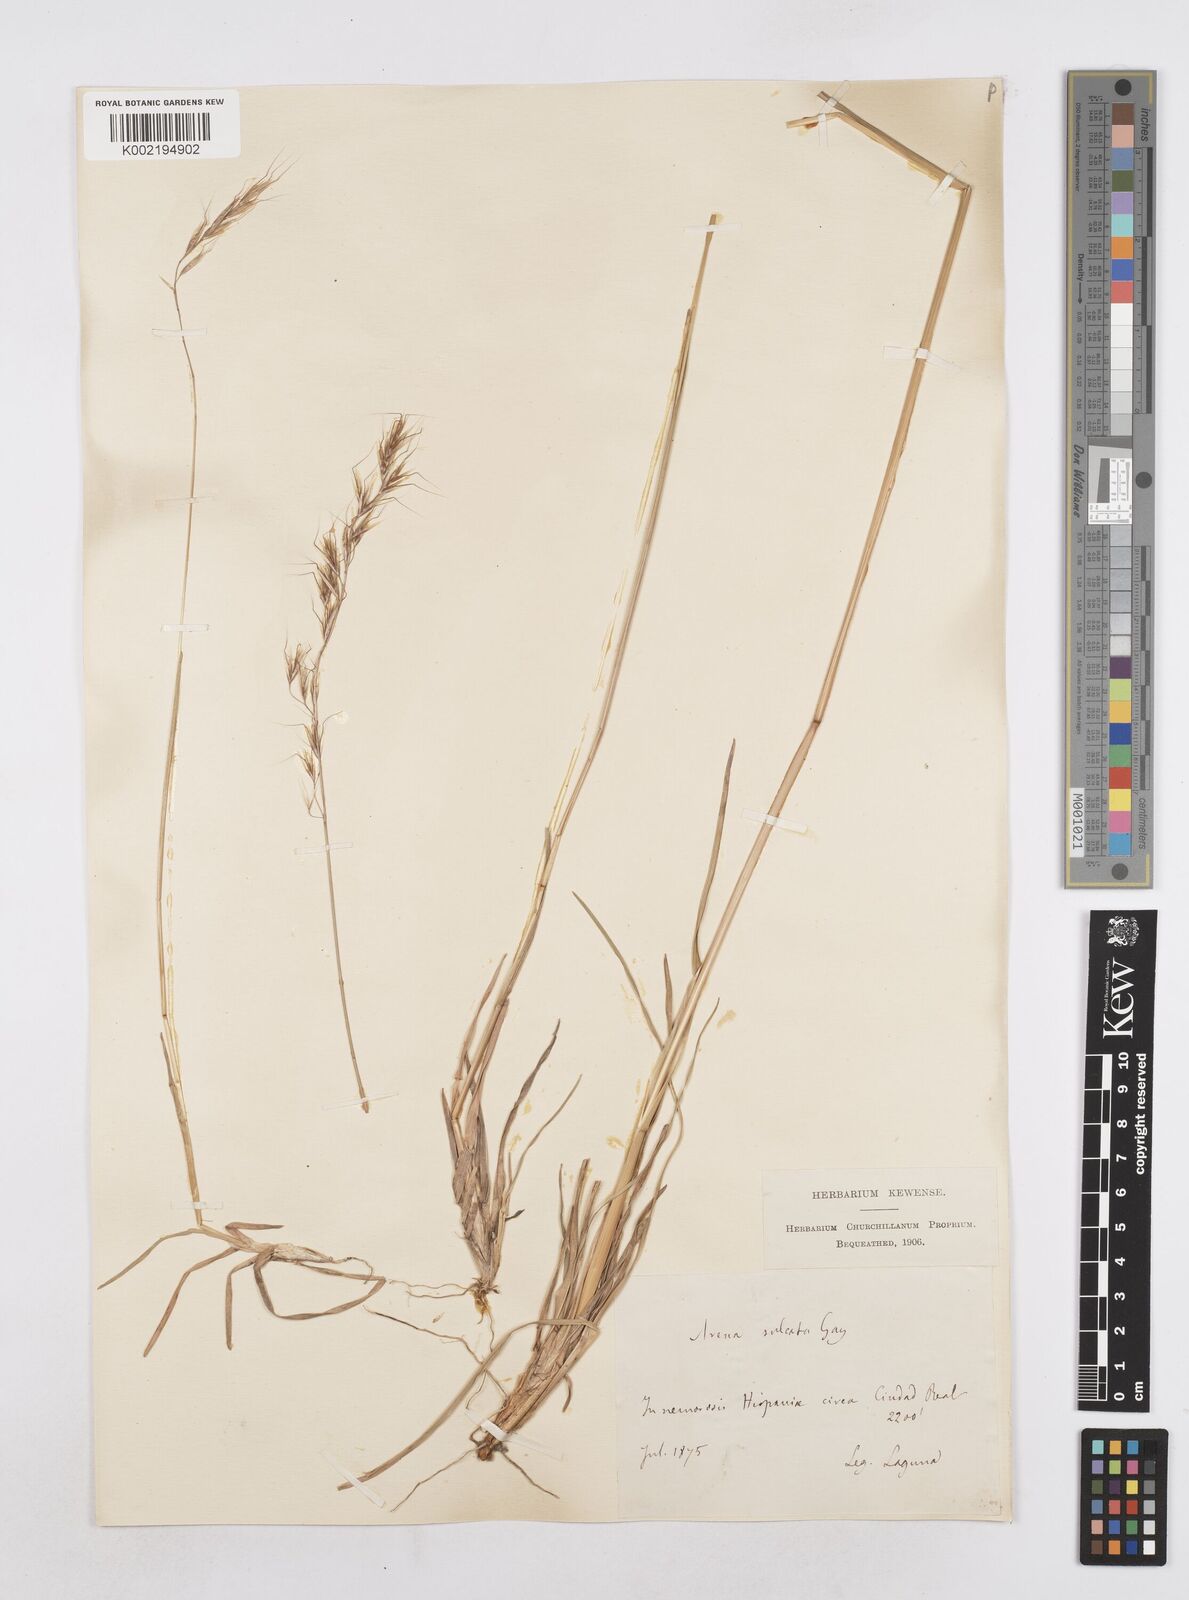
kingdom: Plantae
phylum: Tracheophyta
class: Liliopsida
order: Poales
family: Poaceae
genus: Helictotrichon
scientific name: Helictotrichon
